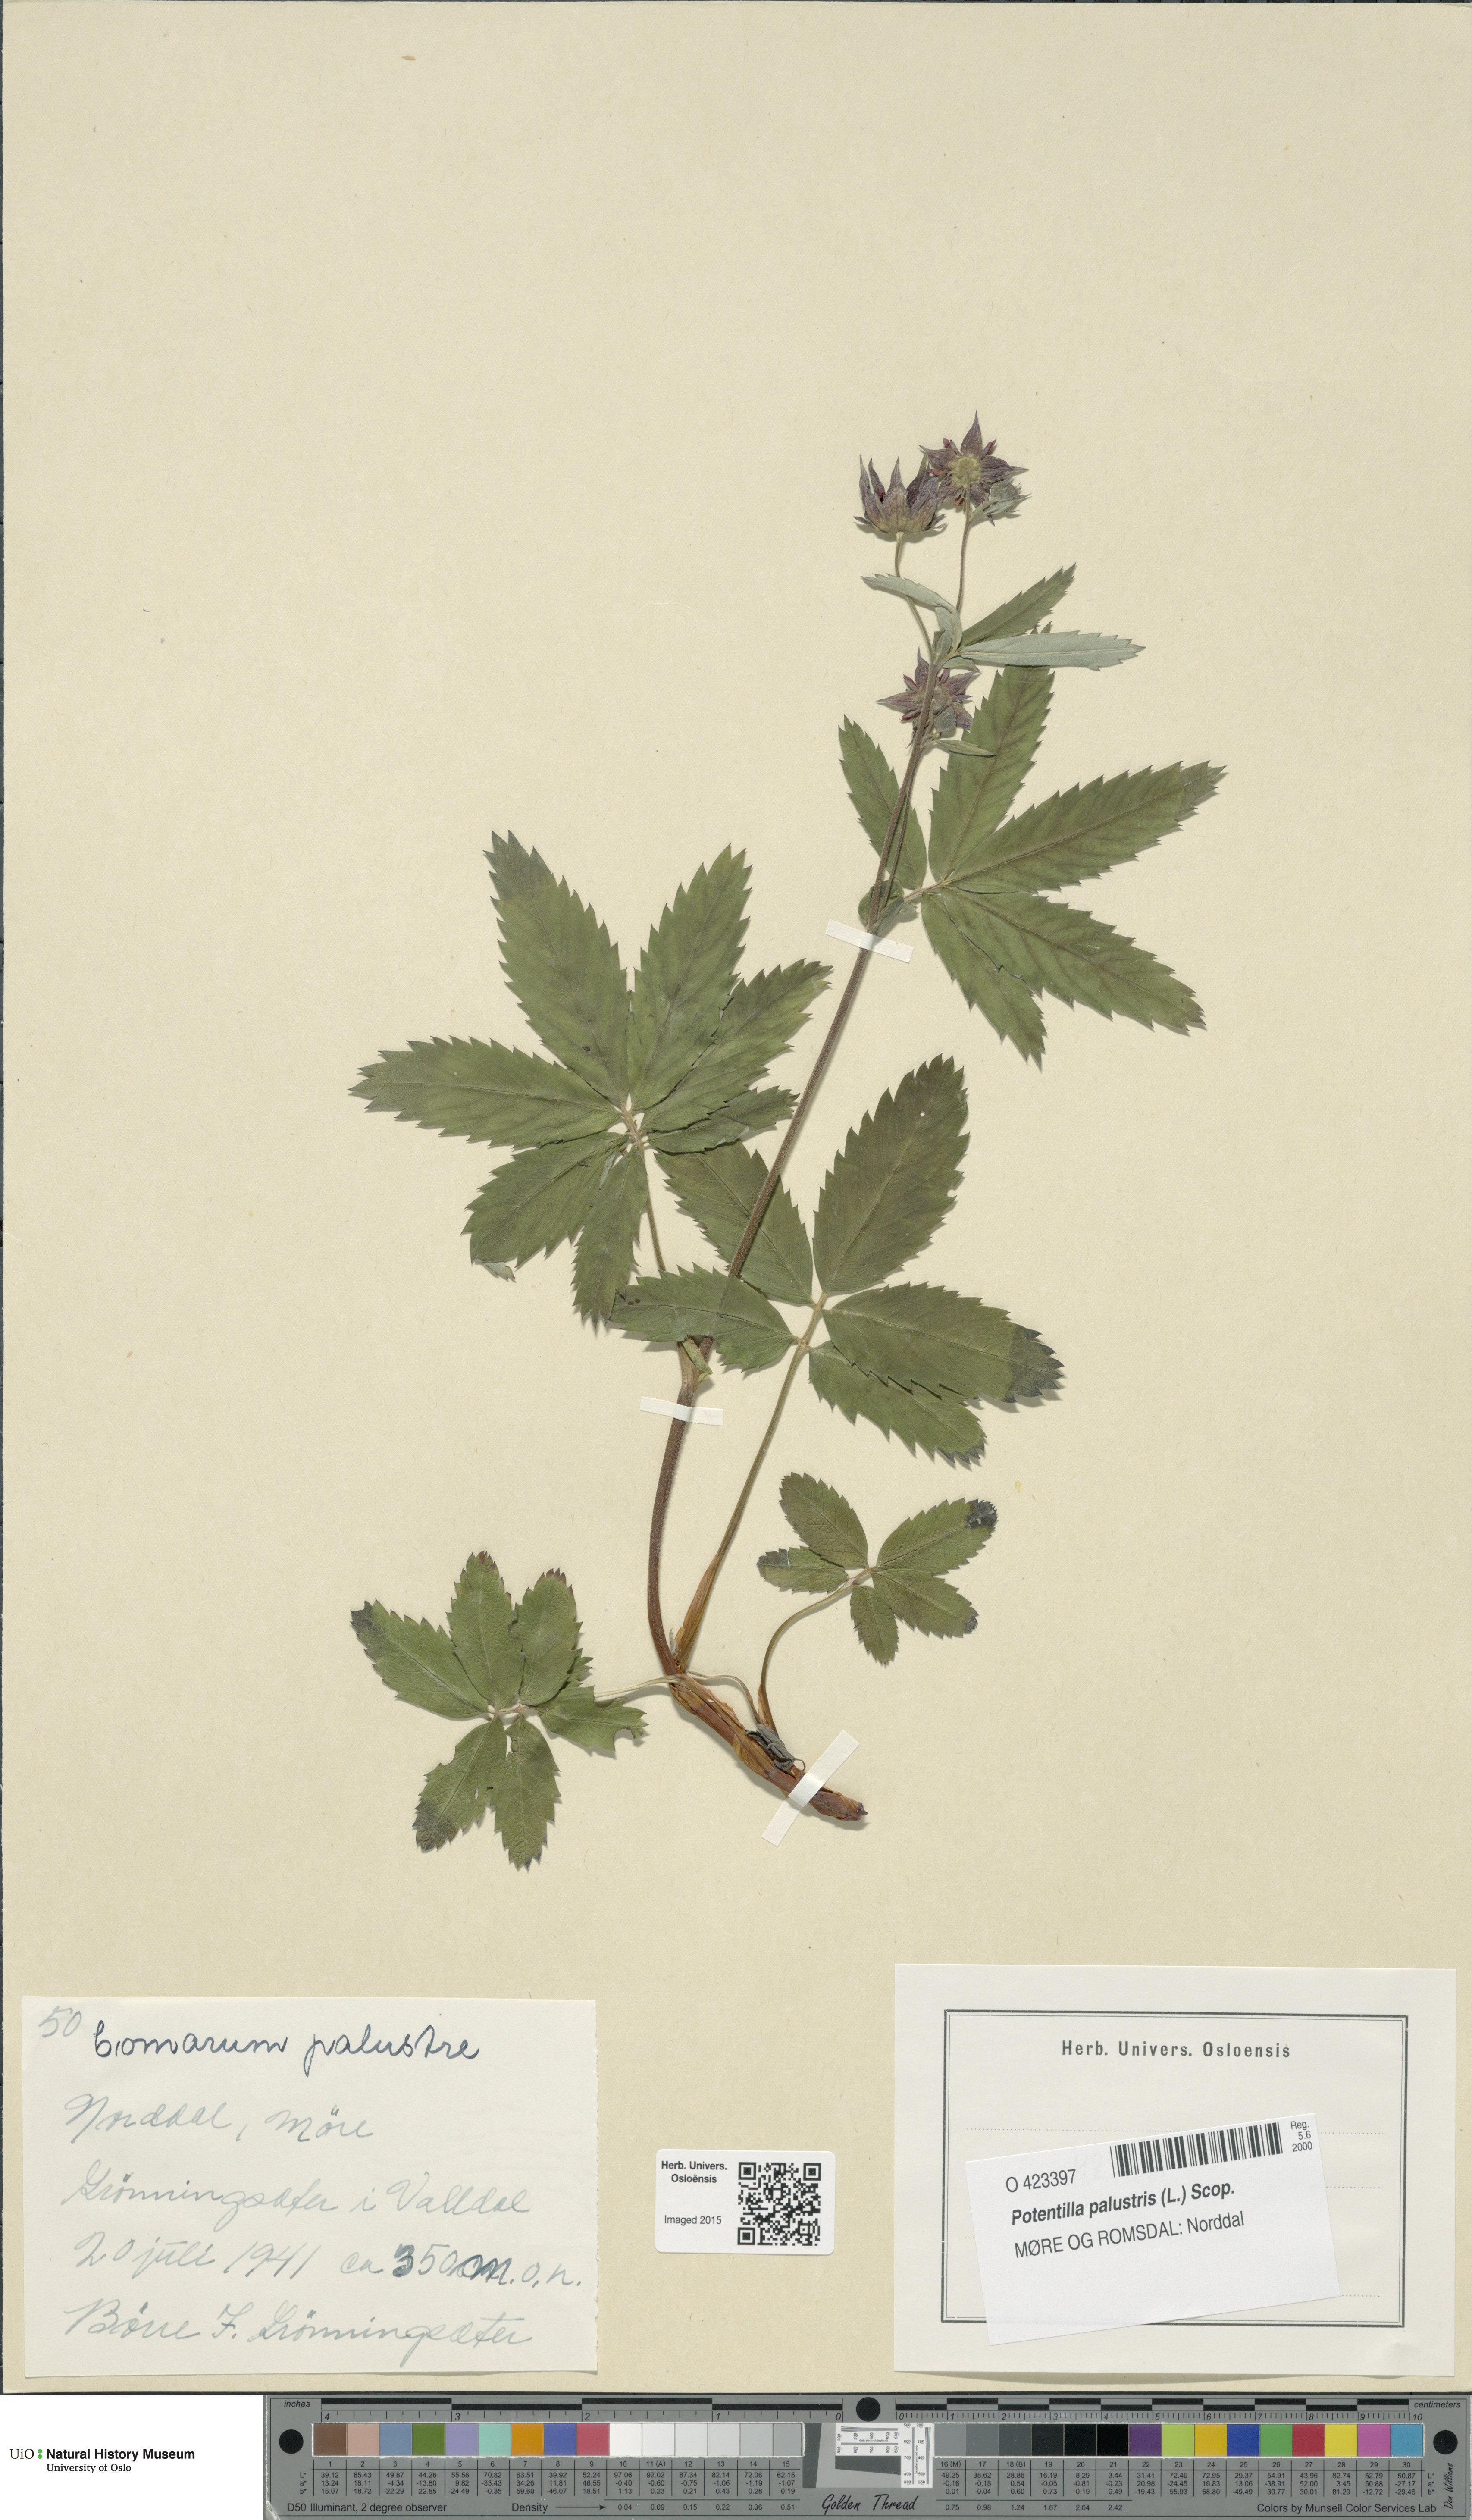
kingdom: Plantae
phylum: Tracheophyta
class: Magnoliopsida
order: Rosales
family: Rosaceae
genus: Comarum
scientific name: Comarum palustre
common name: Marsh cinquefoil
